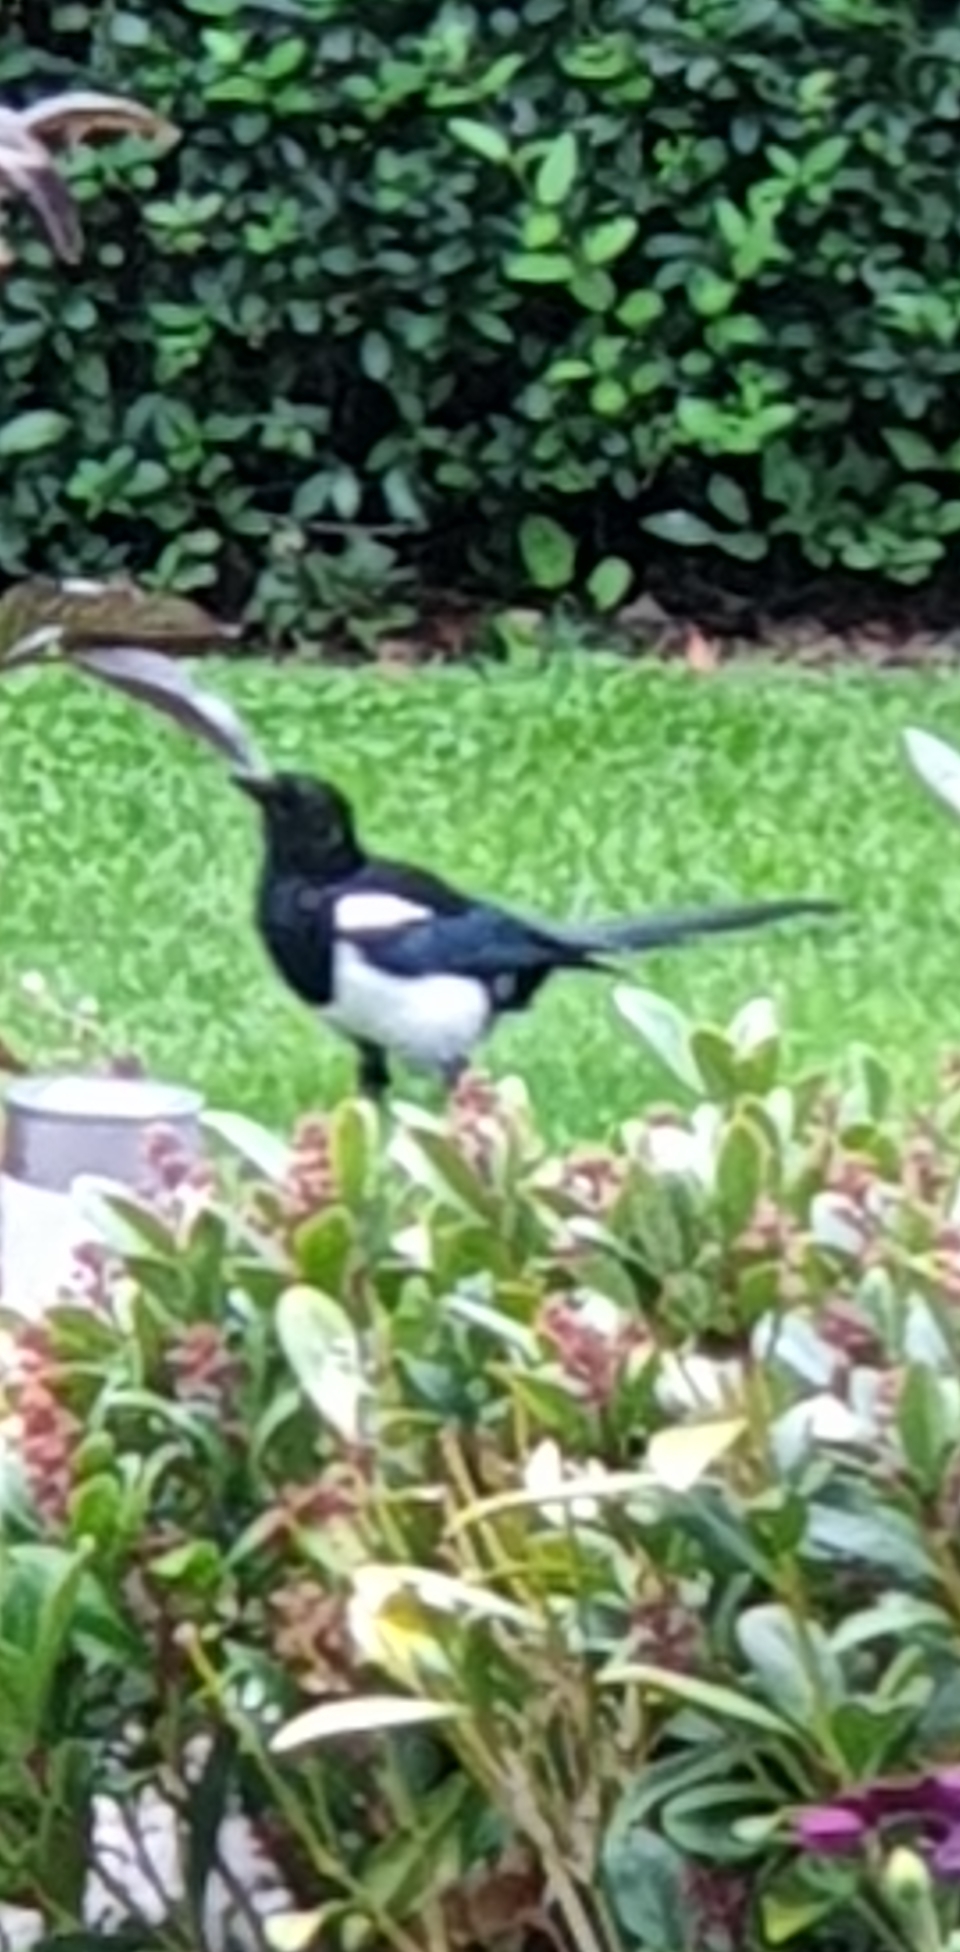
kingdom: Animalia
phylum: Chordata
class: Aves
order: Passeriformes
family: Corvidae
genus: Pica
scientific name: Pica pica
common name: Husskade
